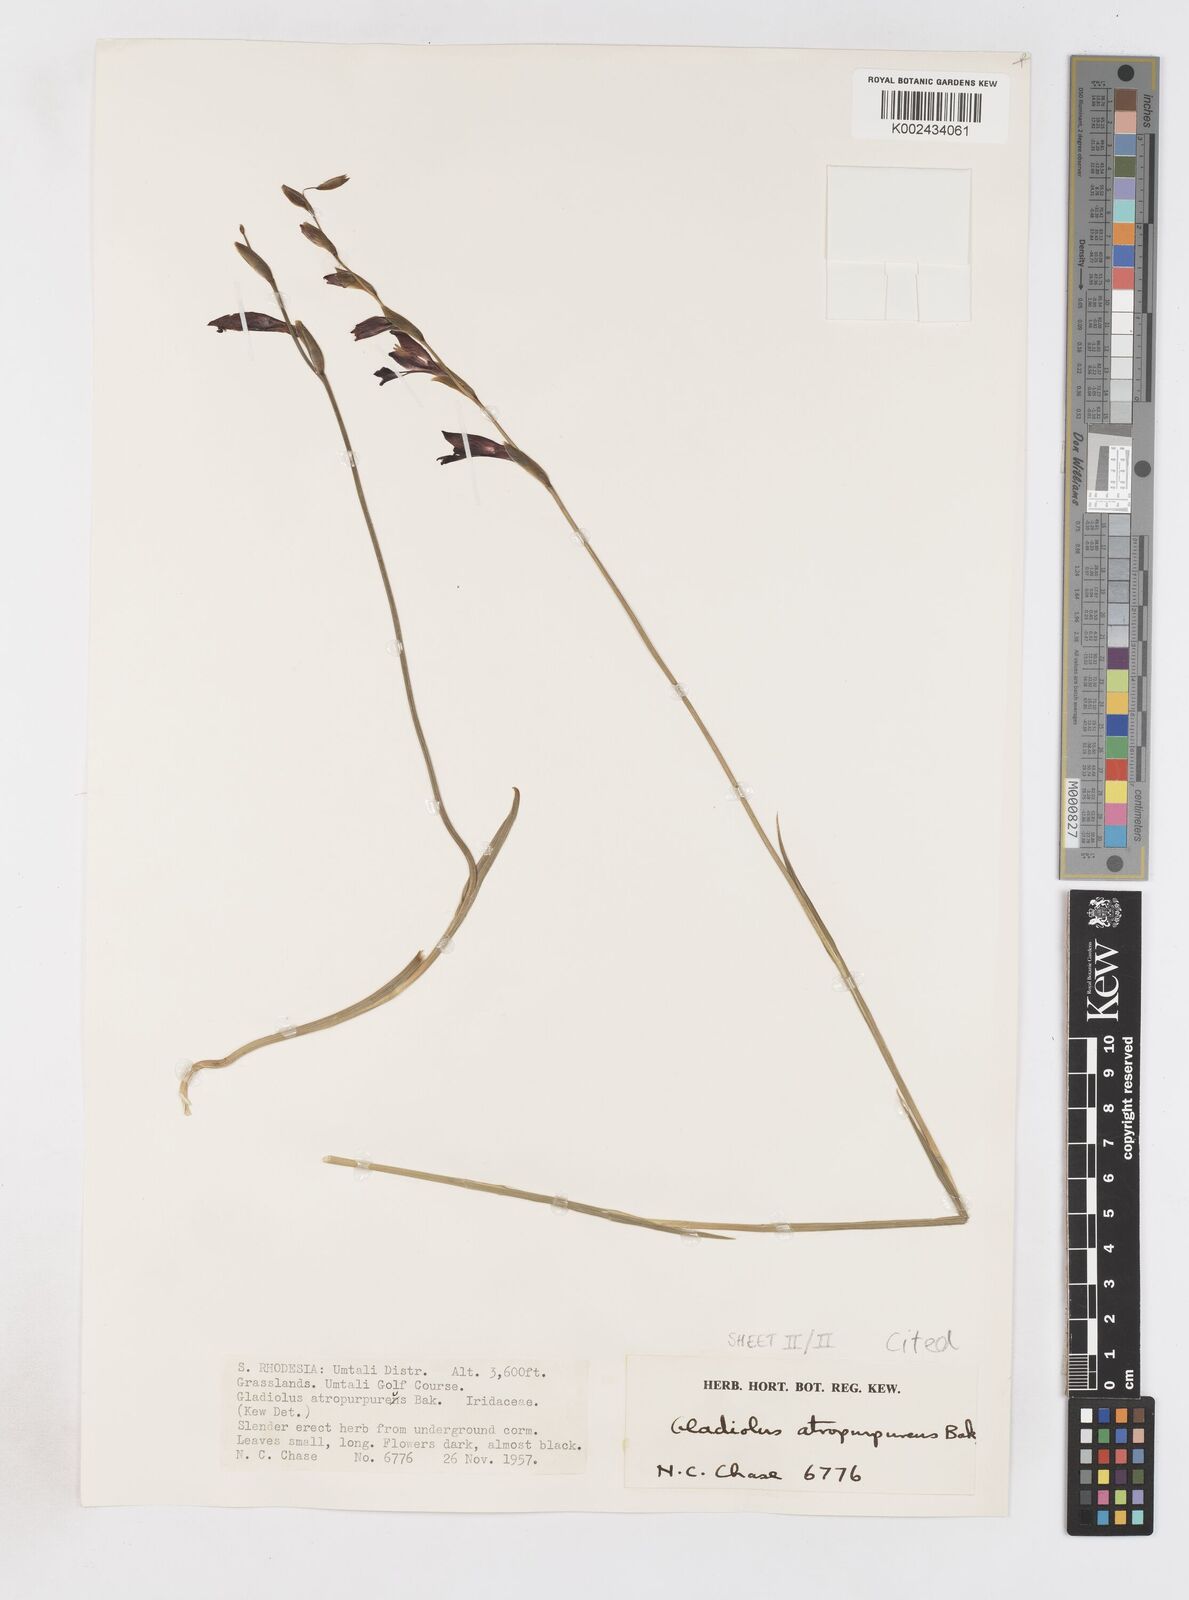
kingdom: Plantae
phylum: Tracheophyta
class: Liliopsida
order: Asparagales
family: Iridaceae
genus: Gladiolus
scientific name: Gladiolus atropurpureus
